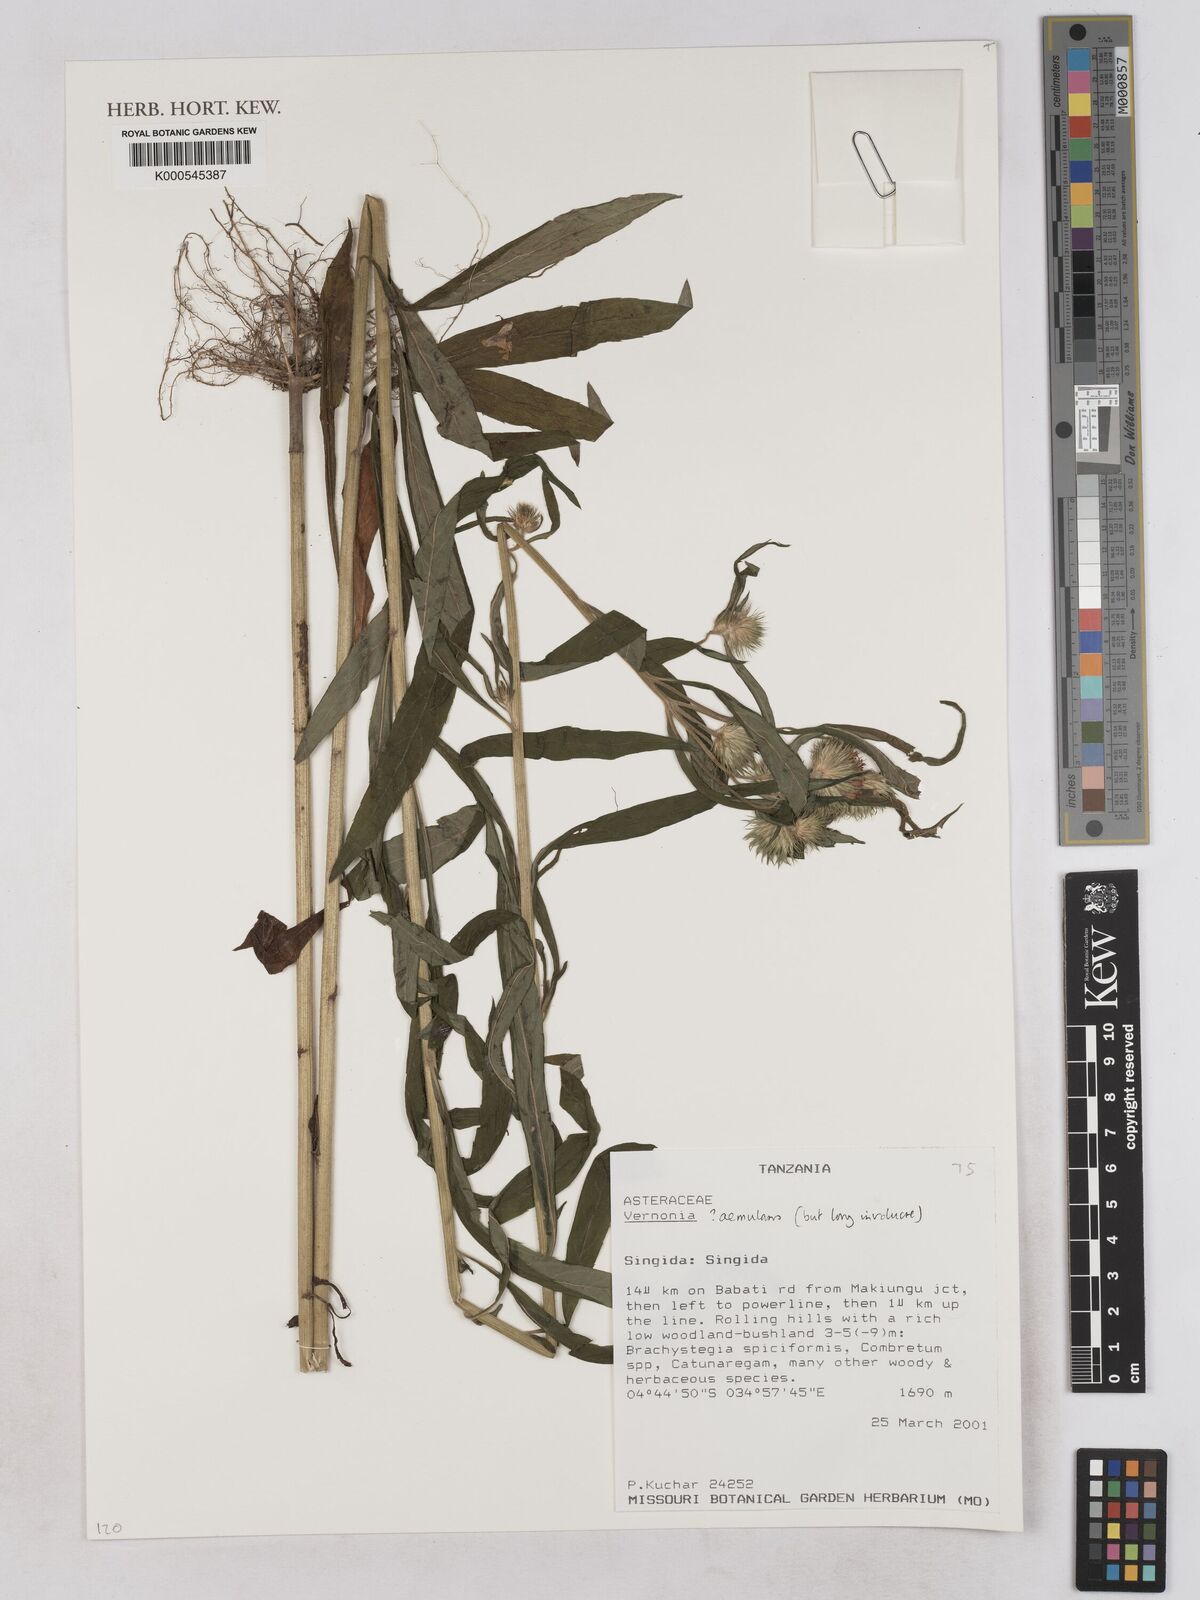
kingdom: Plantae
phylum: Tracheophyta
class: Magnoliopsida
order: Asterales
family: Asteraceae
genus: Vernoniastrum
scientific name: Vernoniastrum aemulans
